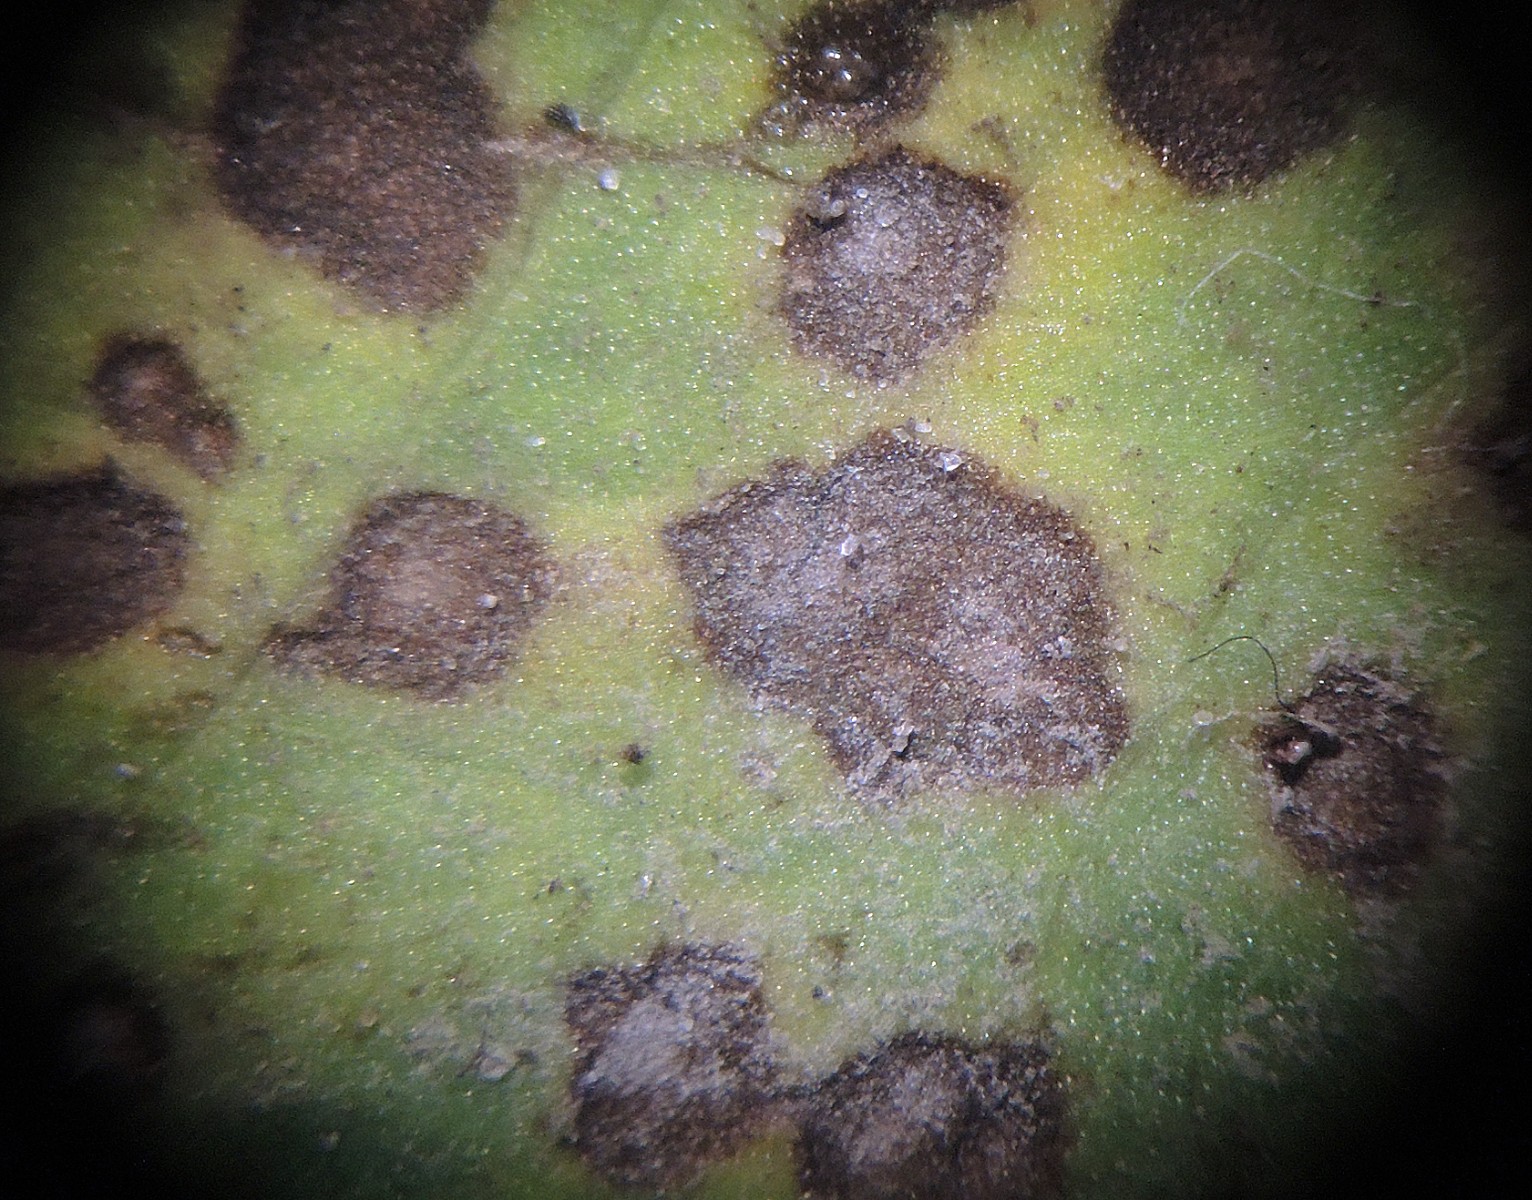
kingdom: Fungi
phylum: Ascomycota
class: Sordariomycetes
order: Glomerellales
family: Plectosphaerellaceae
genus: Plectosphaerella
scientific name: Plectosphaerella alismatis
